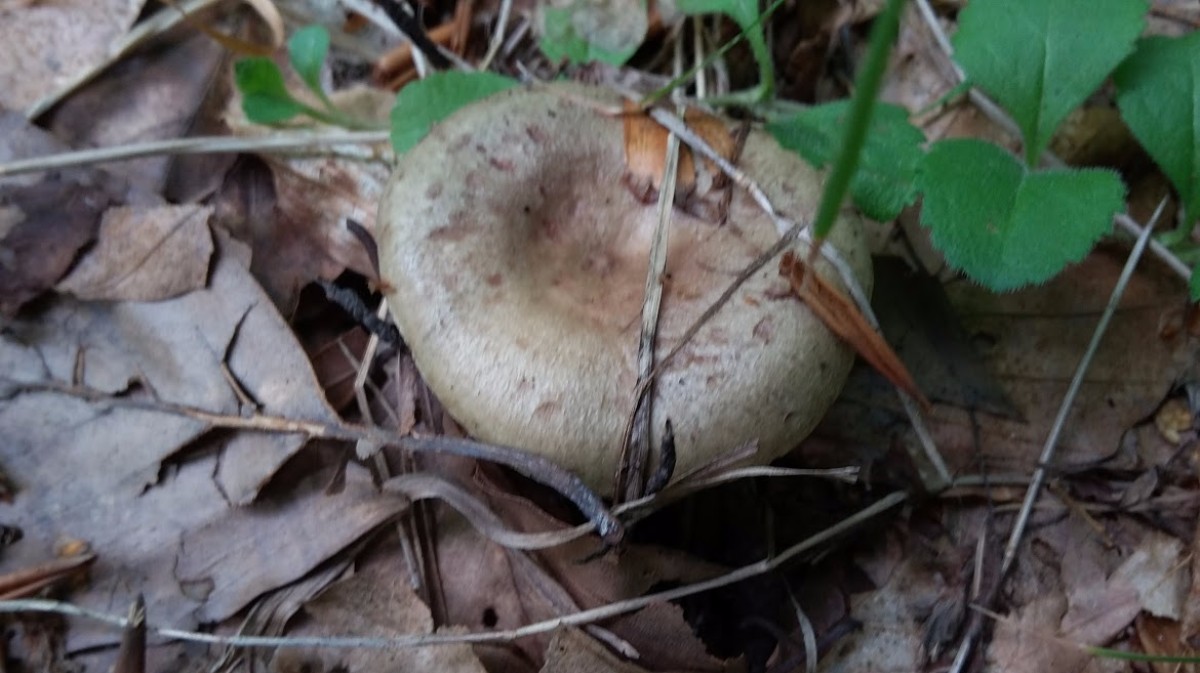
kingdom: Fungi
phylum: Basidiomycota
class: Agaricomycetes
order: Russulales
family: Russulaceae
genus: Lactarius
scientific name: Lactarius blennius
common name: dråbeplettet mælkehat
